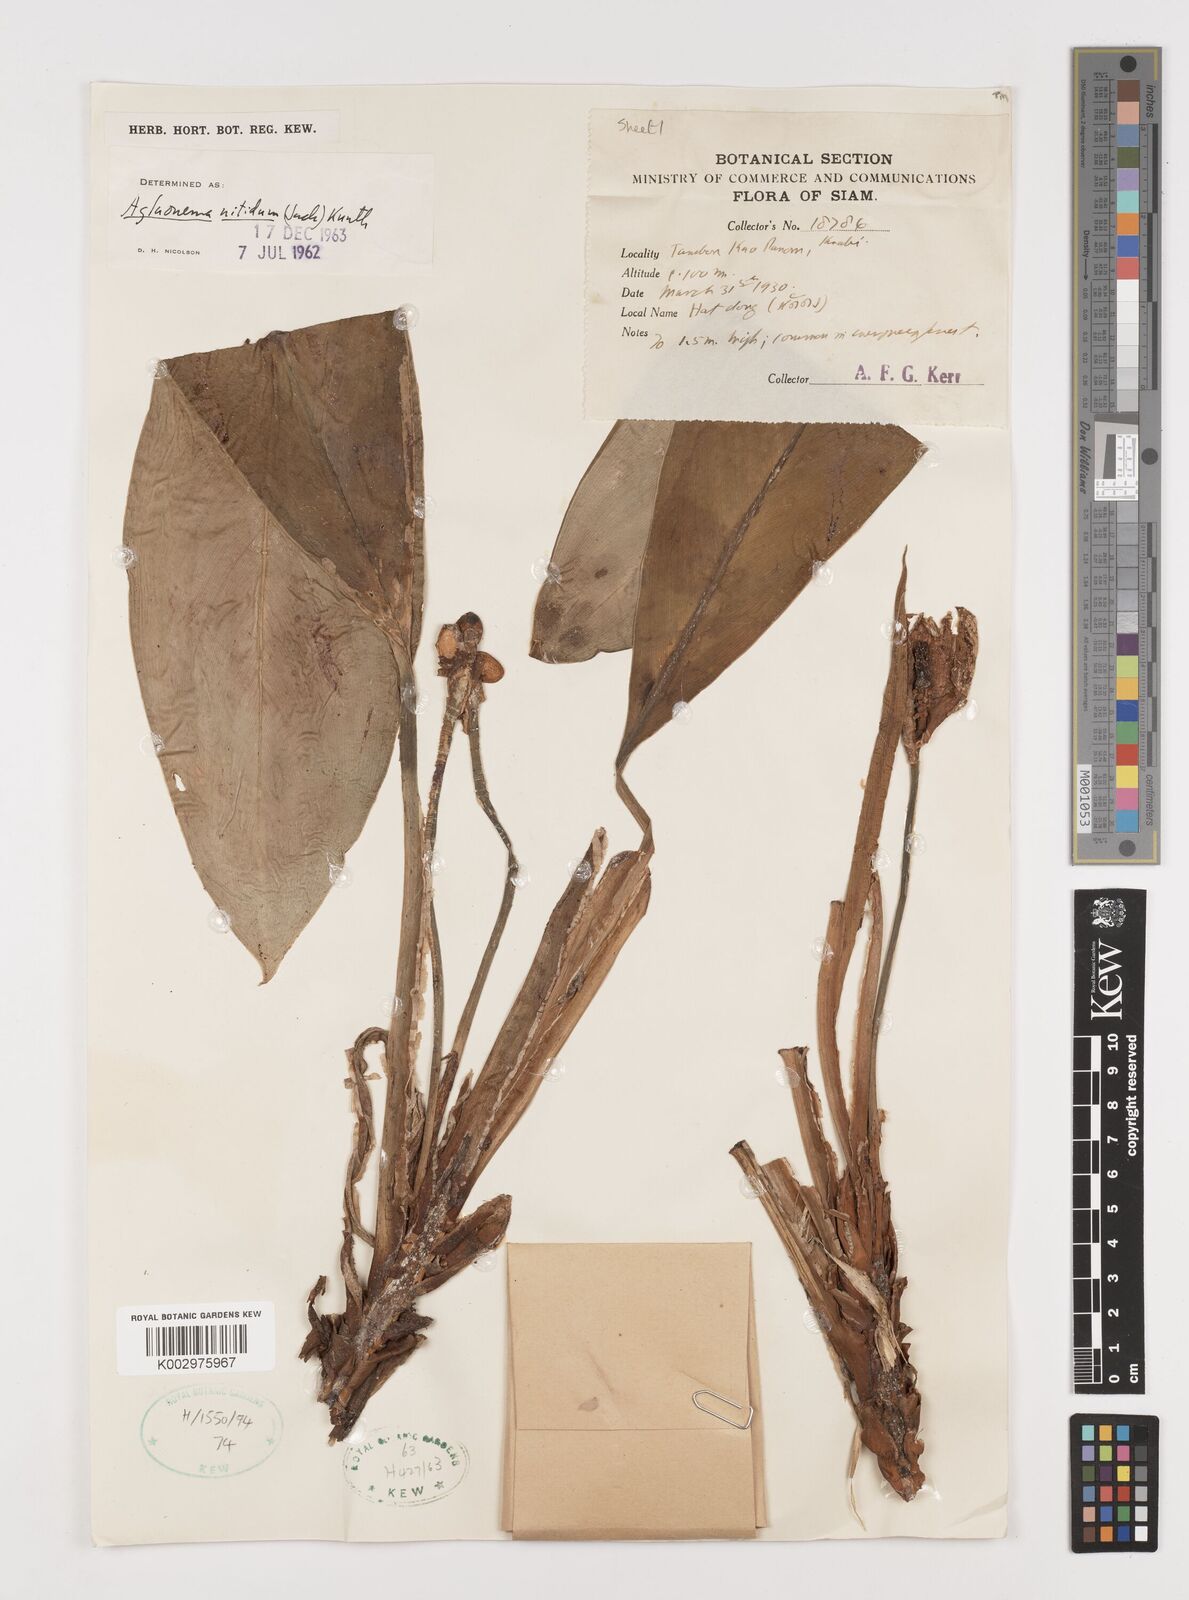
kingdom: Plantae
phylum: Tracheophyta
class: Liliopsida
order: Alismatales
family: Araceae
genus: Aglaonema
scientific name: Aglaonema nitidum
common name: Aglaonema aroid
